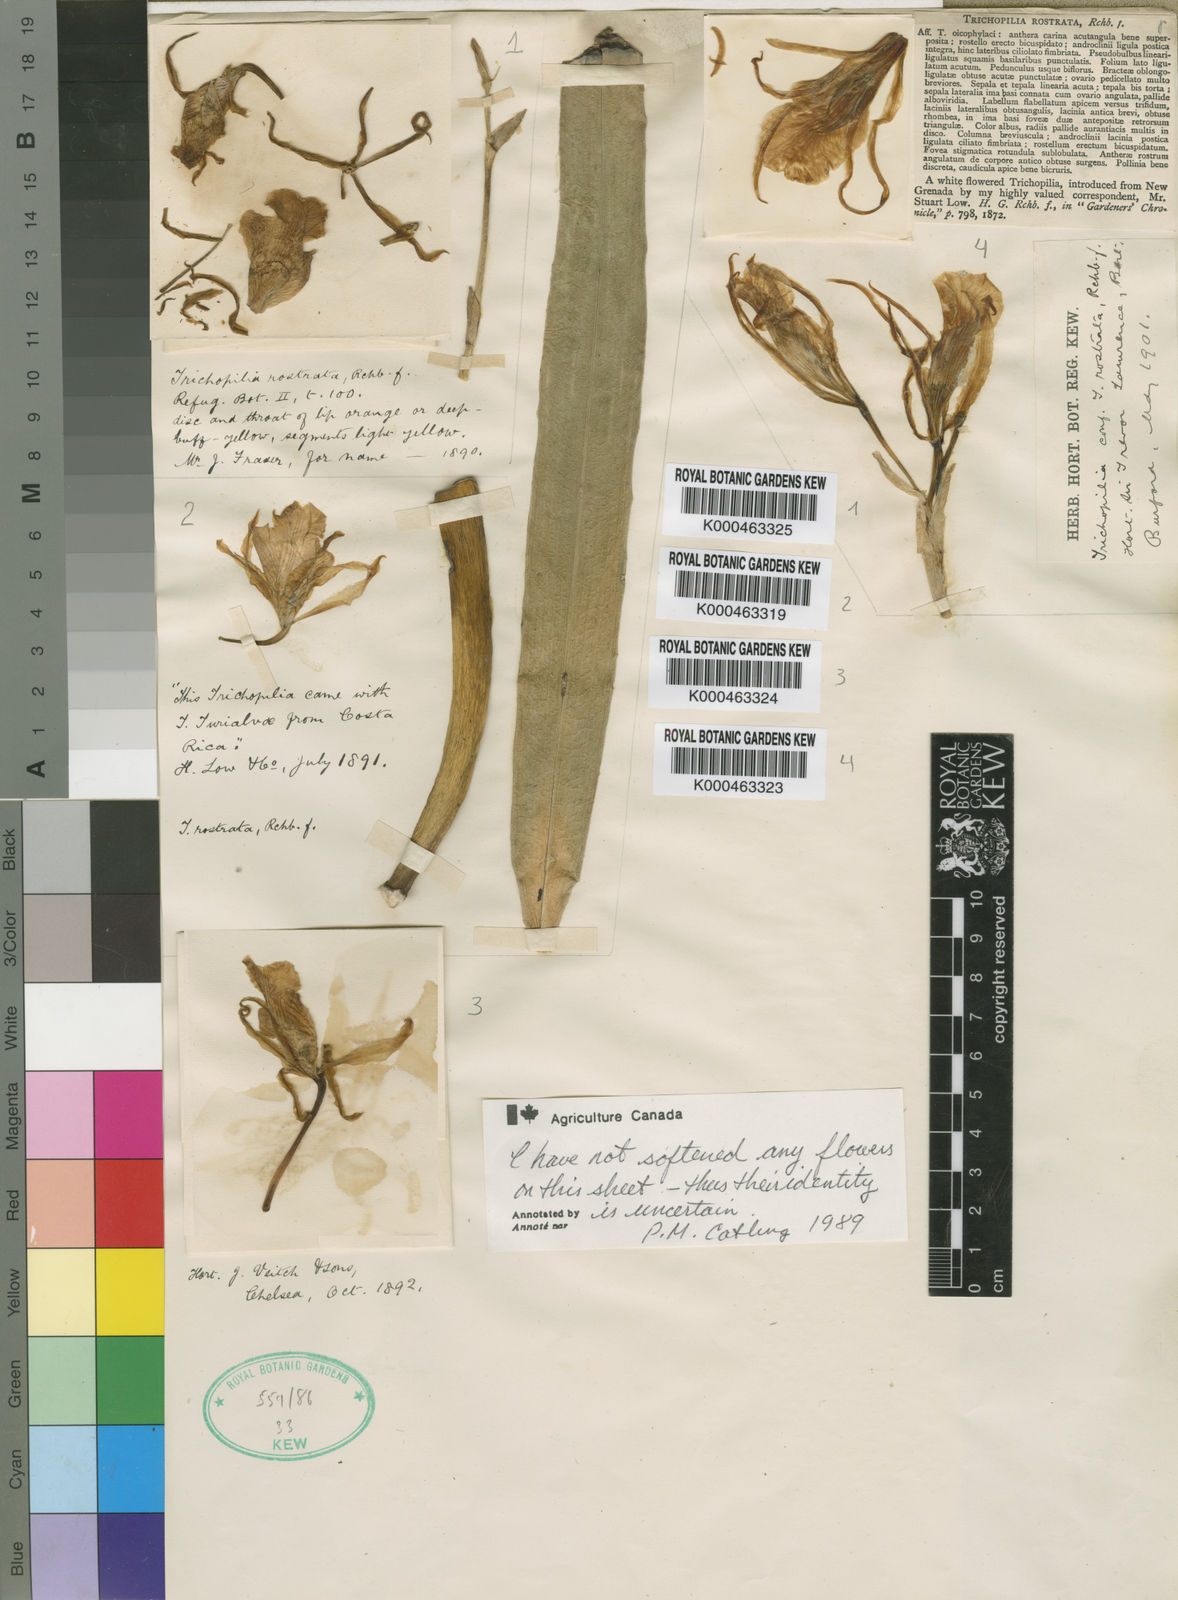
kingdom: Plantae
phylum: Tracheophyta
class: Liliopsida
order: Asparagales
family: Orchidaceae
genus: Trichopilia
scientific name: Trichopilia rostrata
